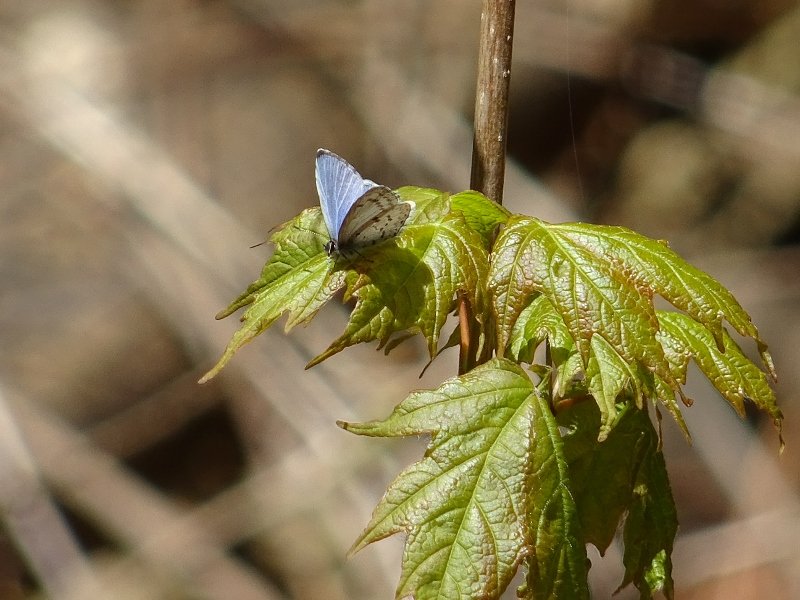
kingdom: Animalia
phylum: Arthropoda
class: Insecta
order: Lepidoptera
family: Lycaenidae
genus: Celastrina
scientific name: Celastrina
